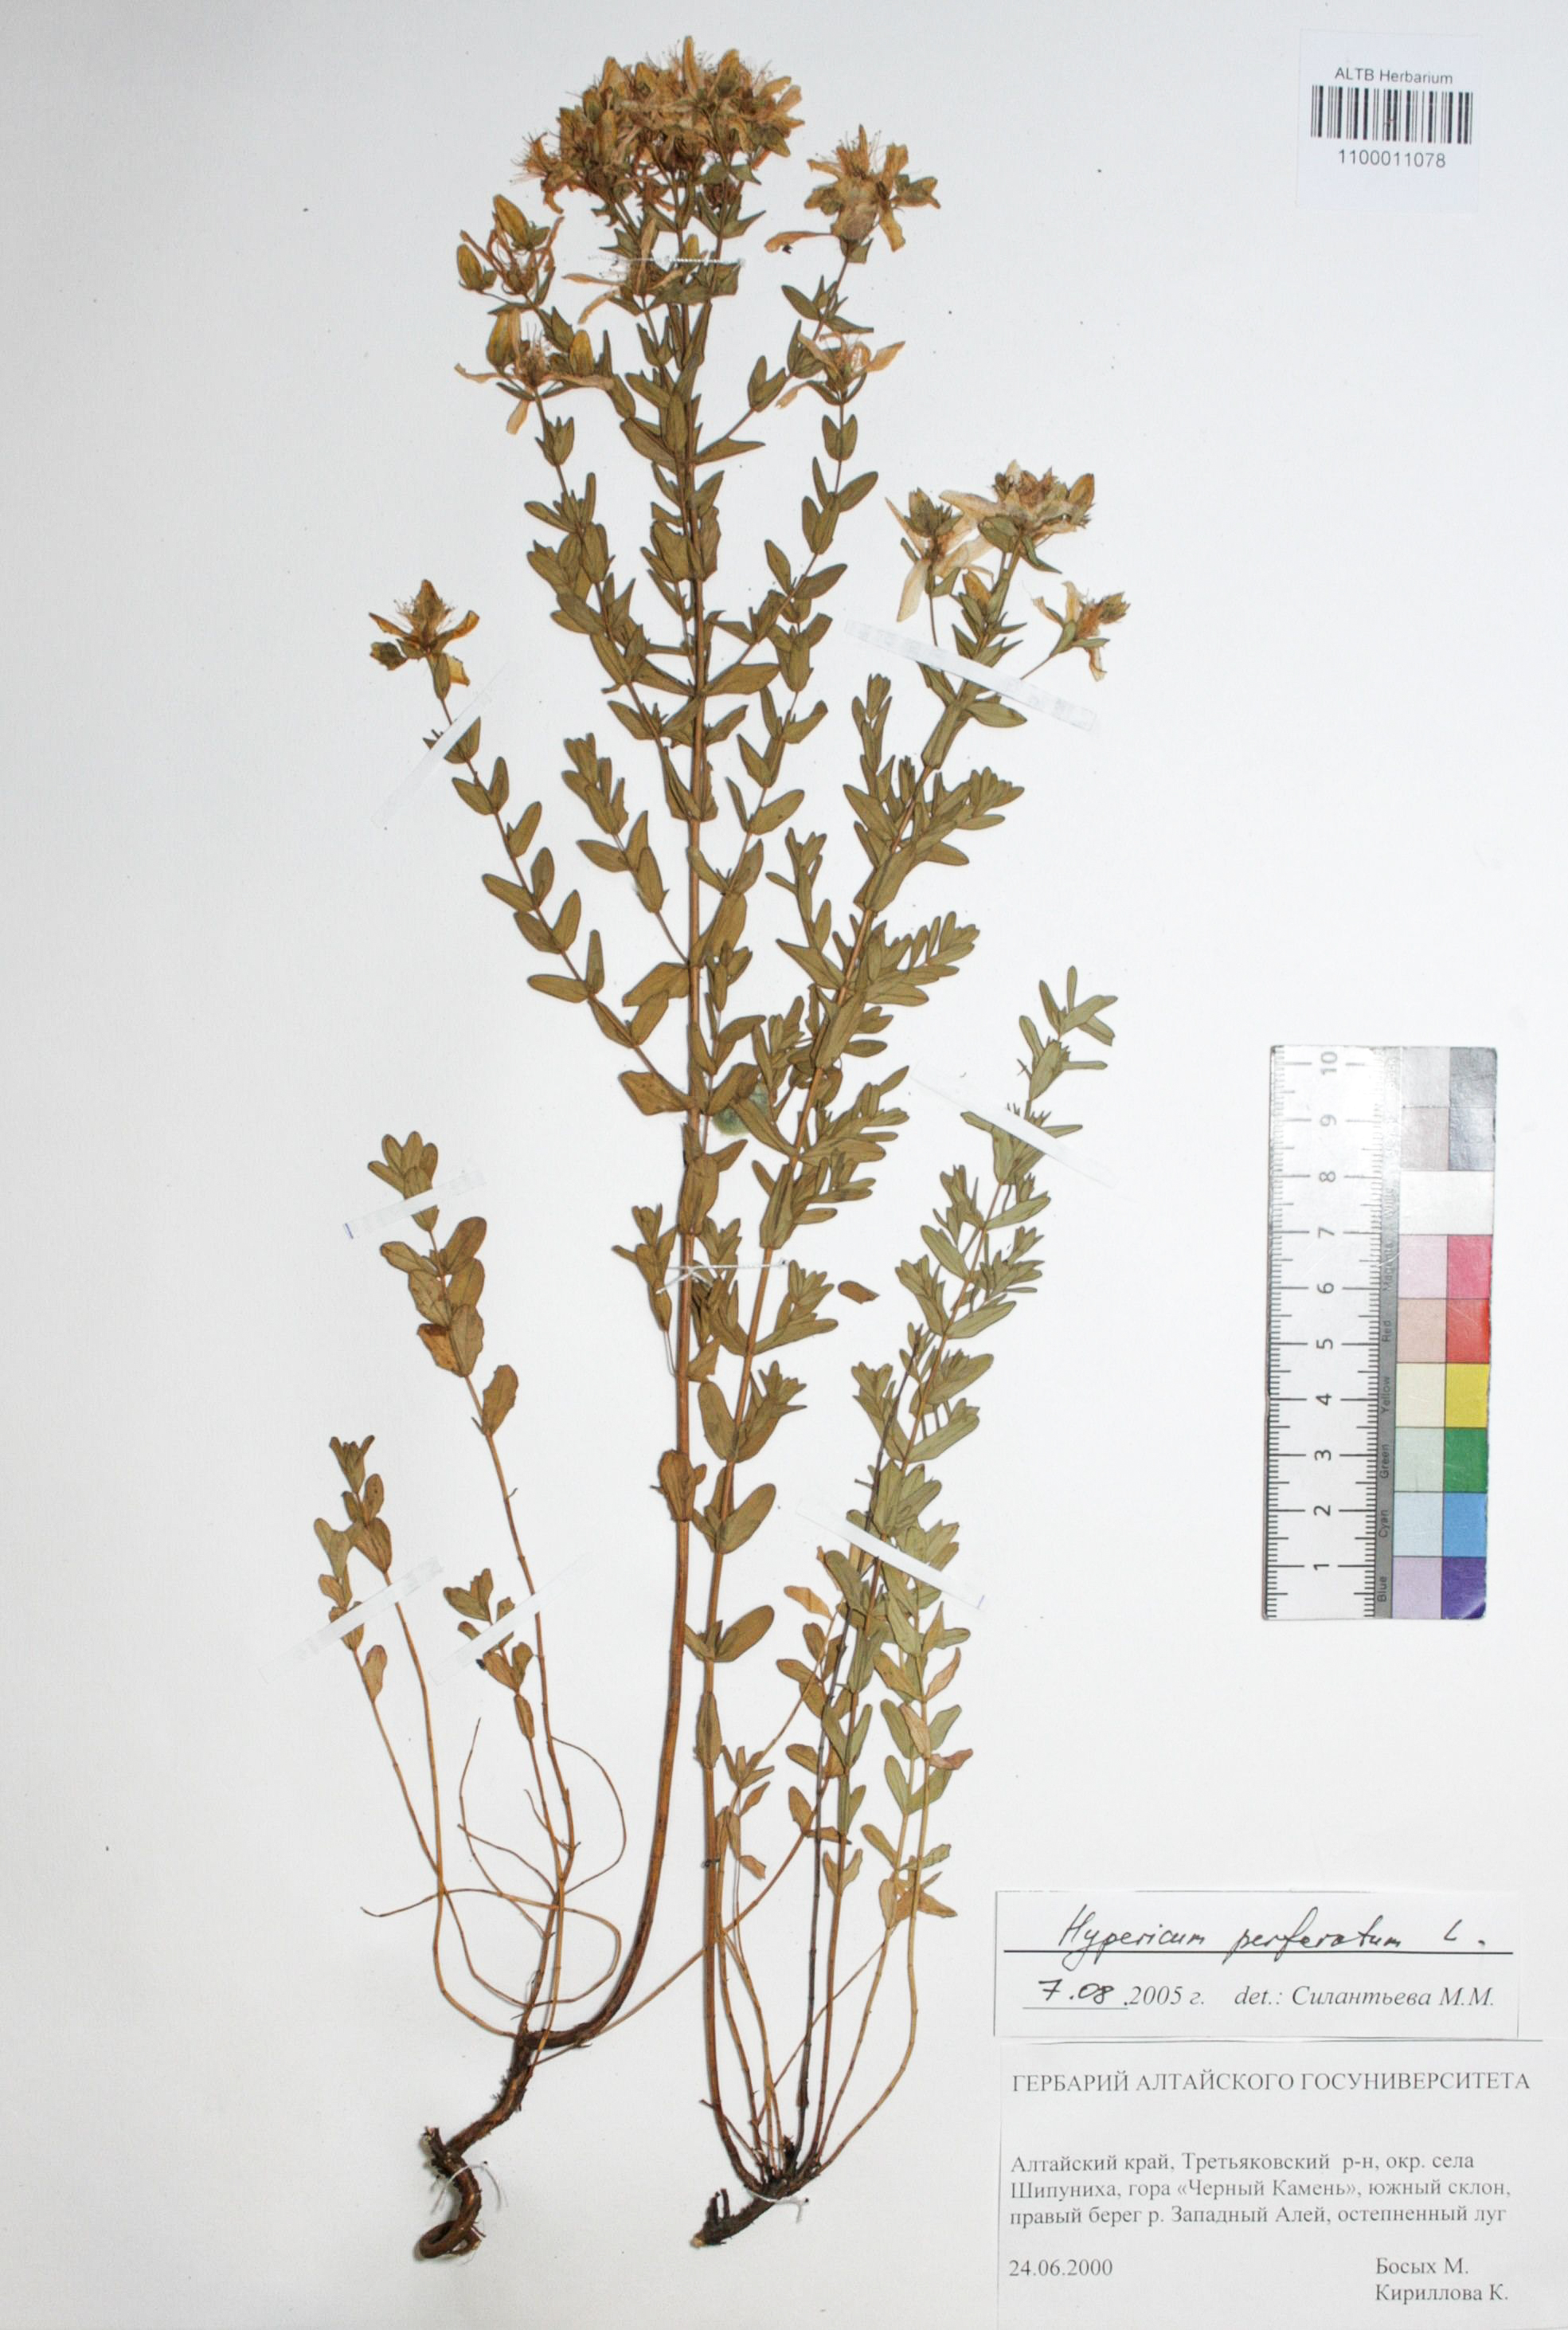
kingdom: Plantae
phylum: Tracheophyta
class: Magnoliopsida
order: Malpighiales
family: Hypericaceae
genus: Hypericum
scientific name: Hypericum perforatum
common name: Common st. johnswort
